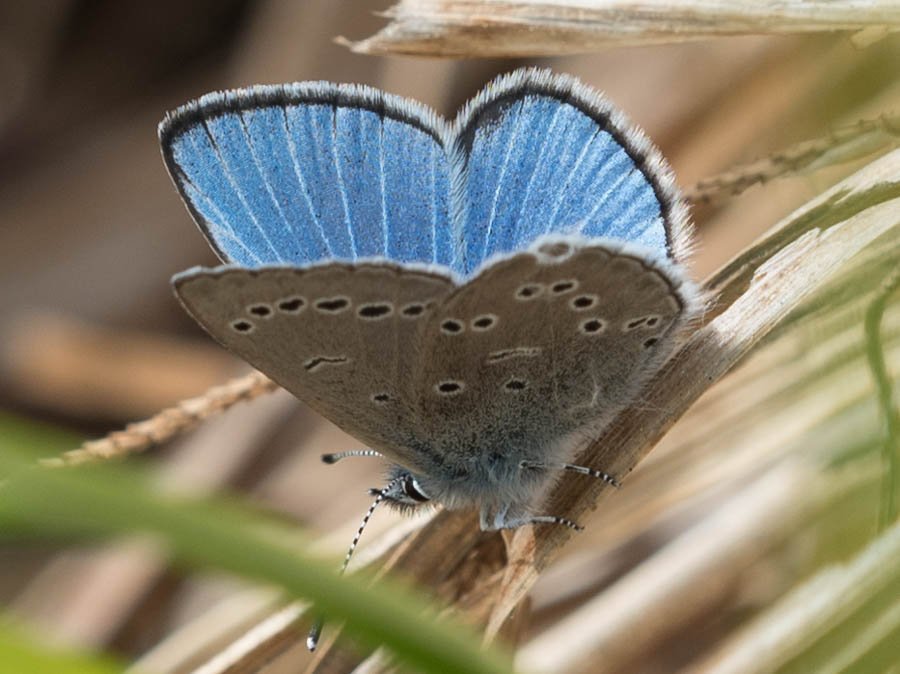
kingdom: Animalia
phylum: Arthropoda
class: Insecta
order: Lepidoptera
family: Lycaenidae
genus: Glaucopsyche
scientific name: Glaucopsyche lygdamus
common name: Silvery Blue
